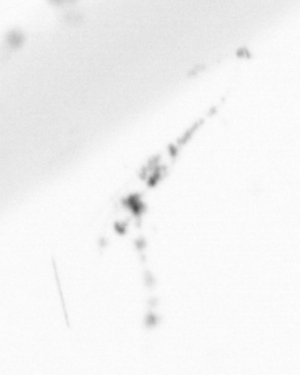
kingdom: Chromista
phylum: Ochrophyta
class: Bacillariophyceae
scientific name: Bacillariophyceae
